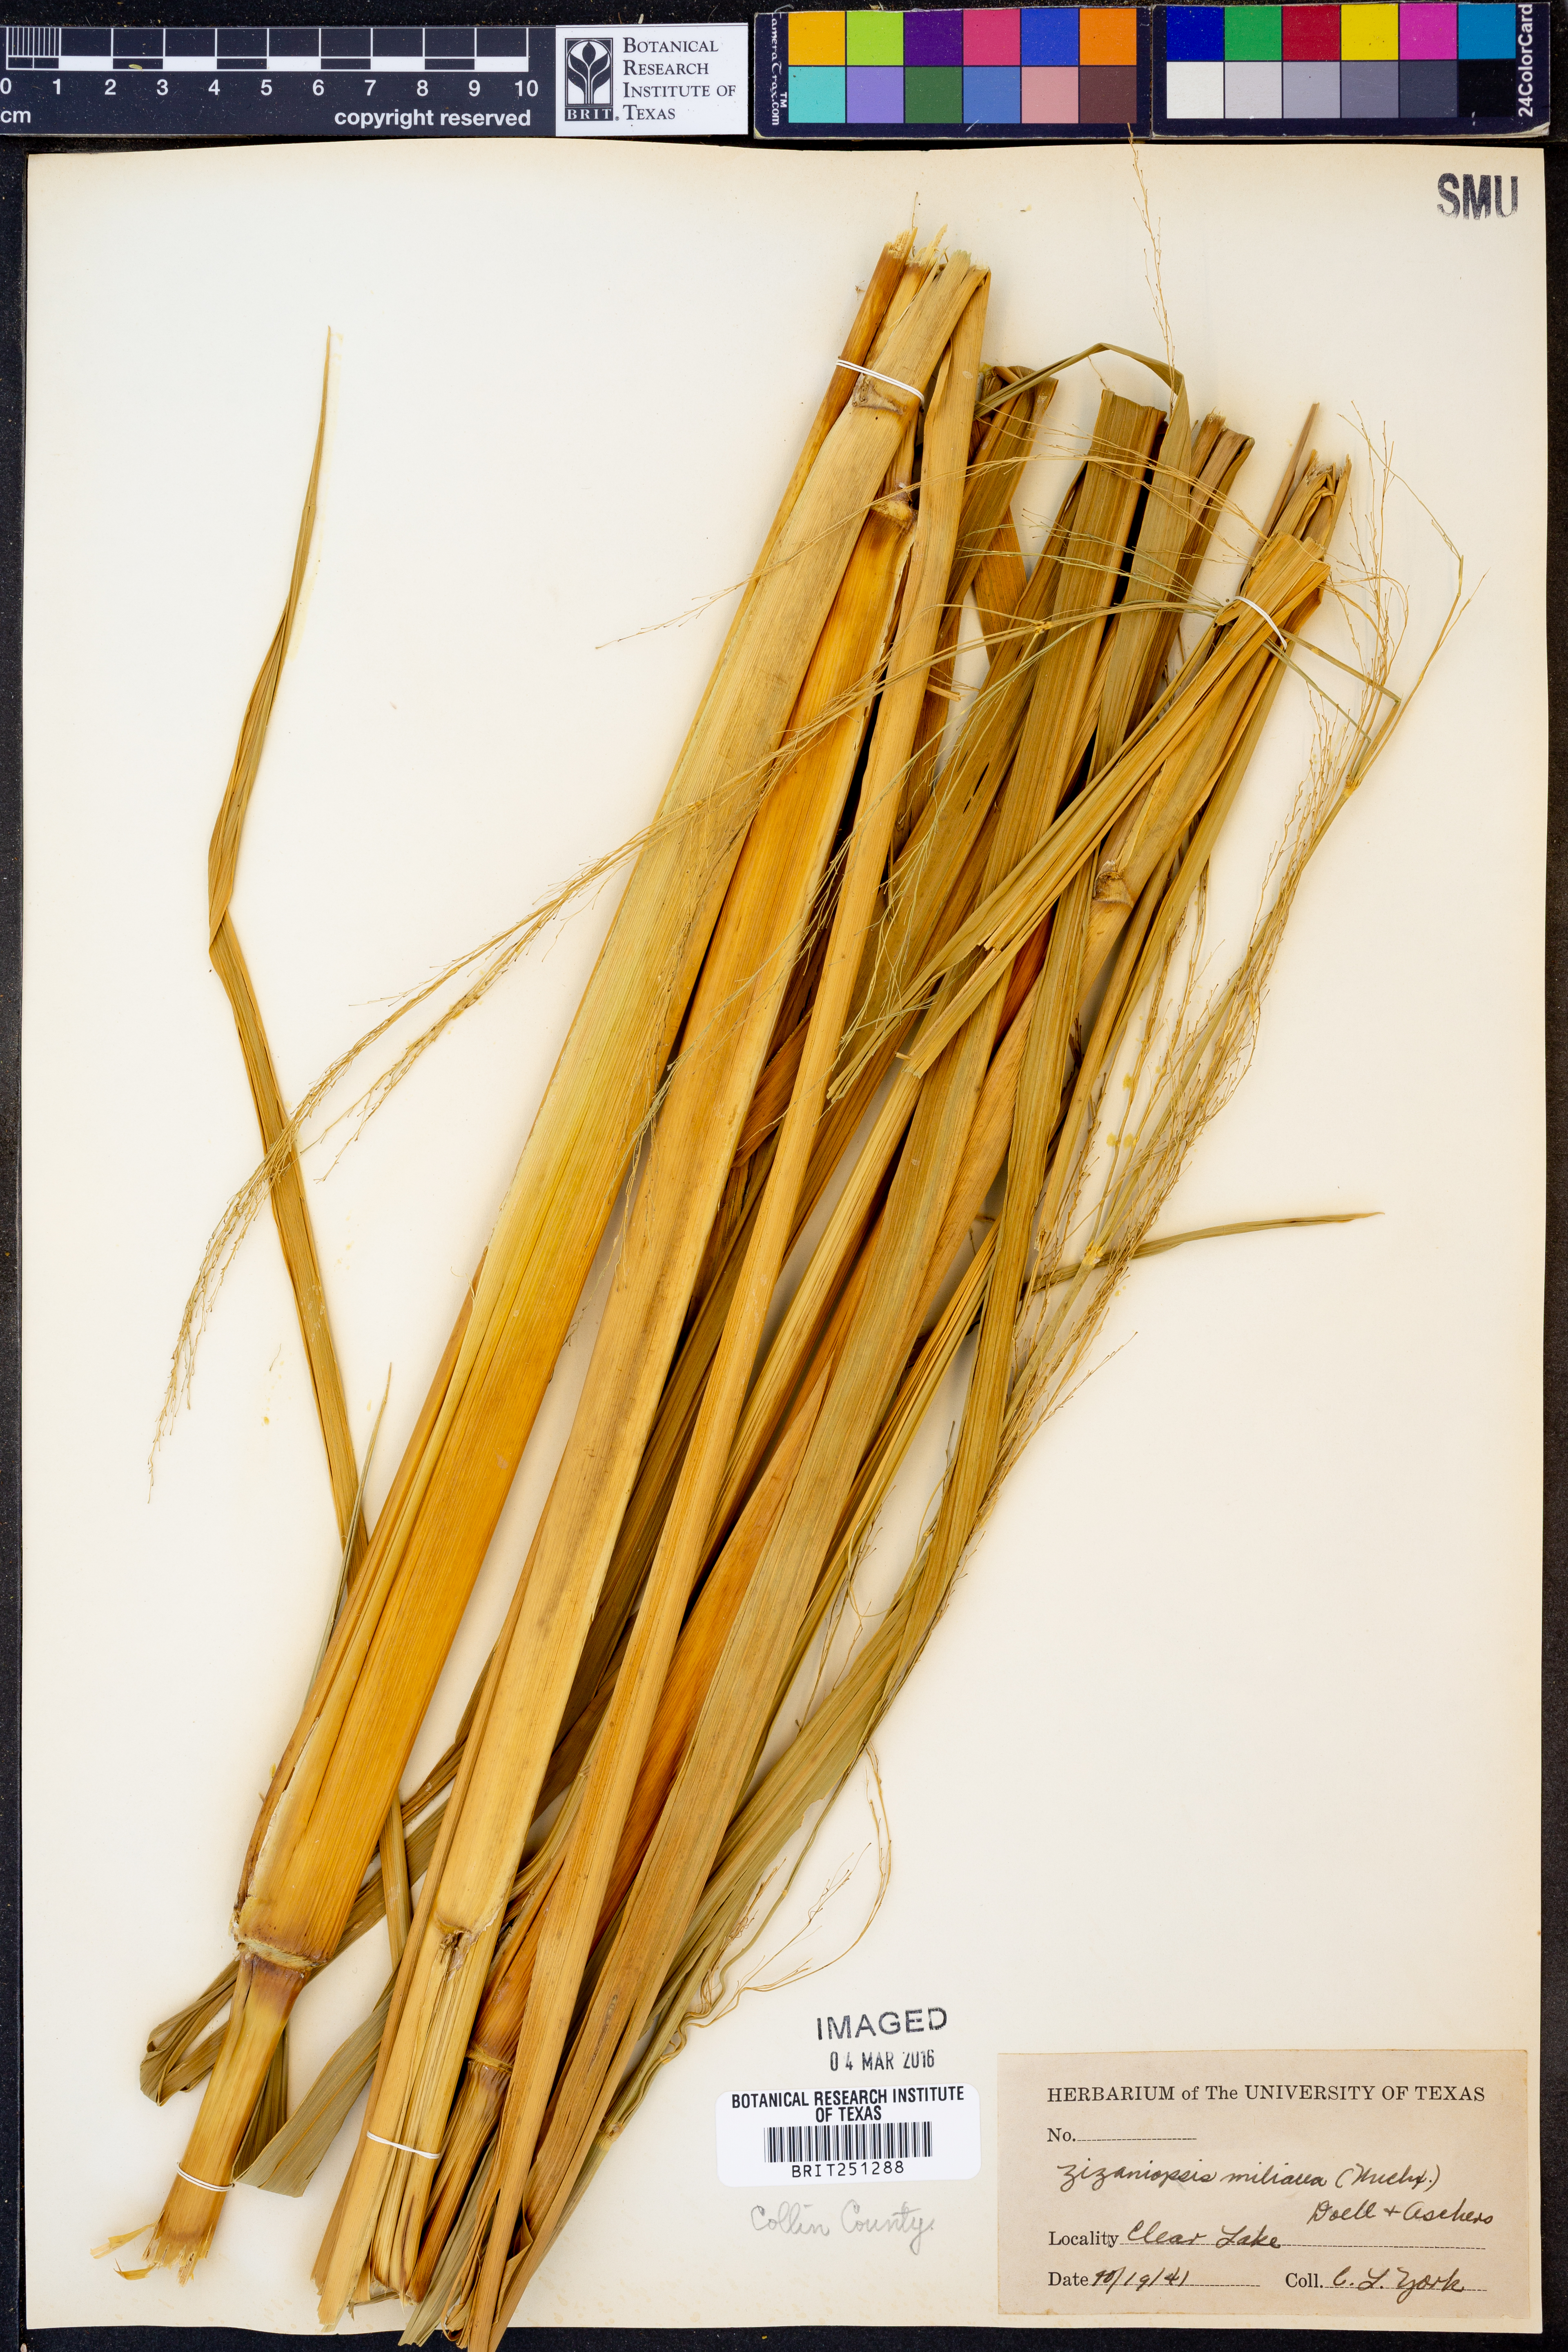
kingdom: Plantae
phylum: Tracheophyta
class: Liliopsida
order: Poales
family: Poaceae
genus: Zizaniopsis
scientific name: Zizaniopsis miliacea
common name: Giant-cutgrass
